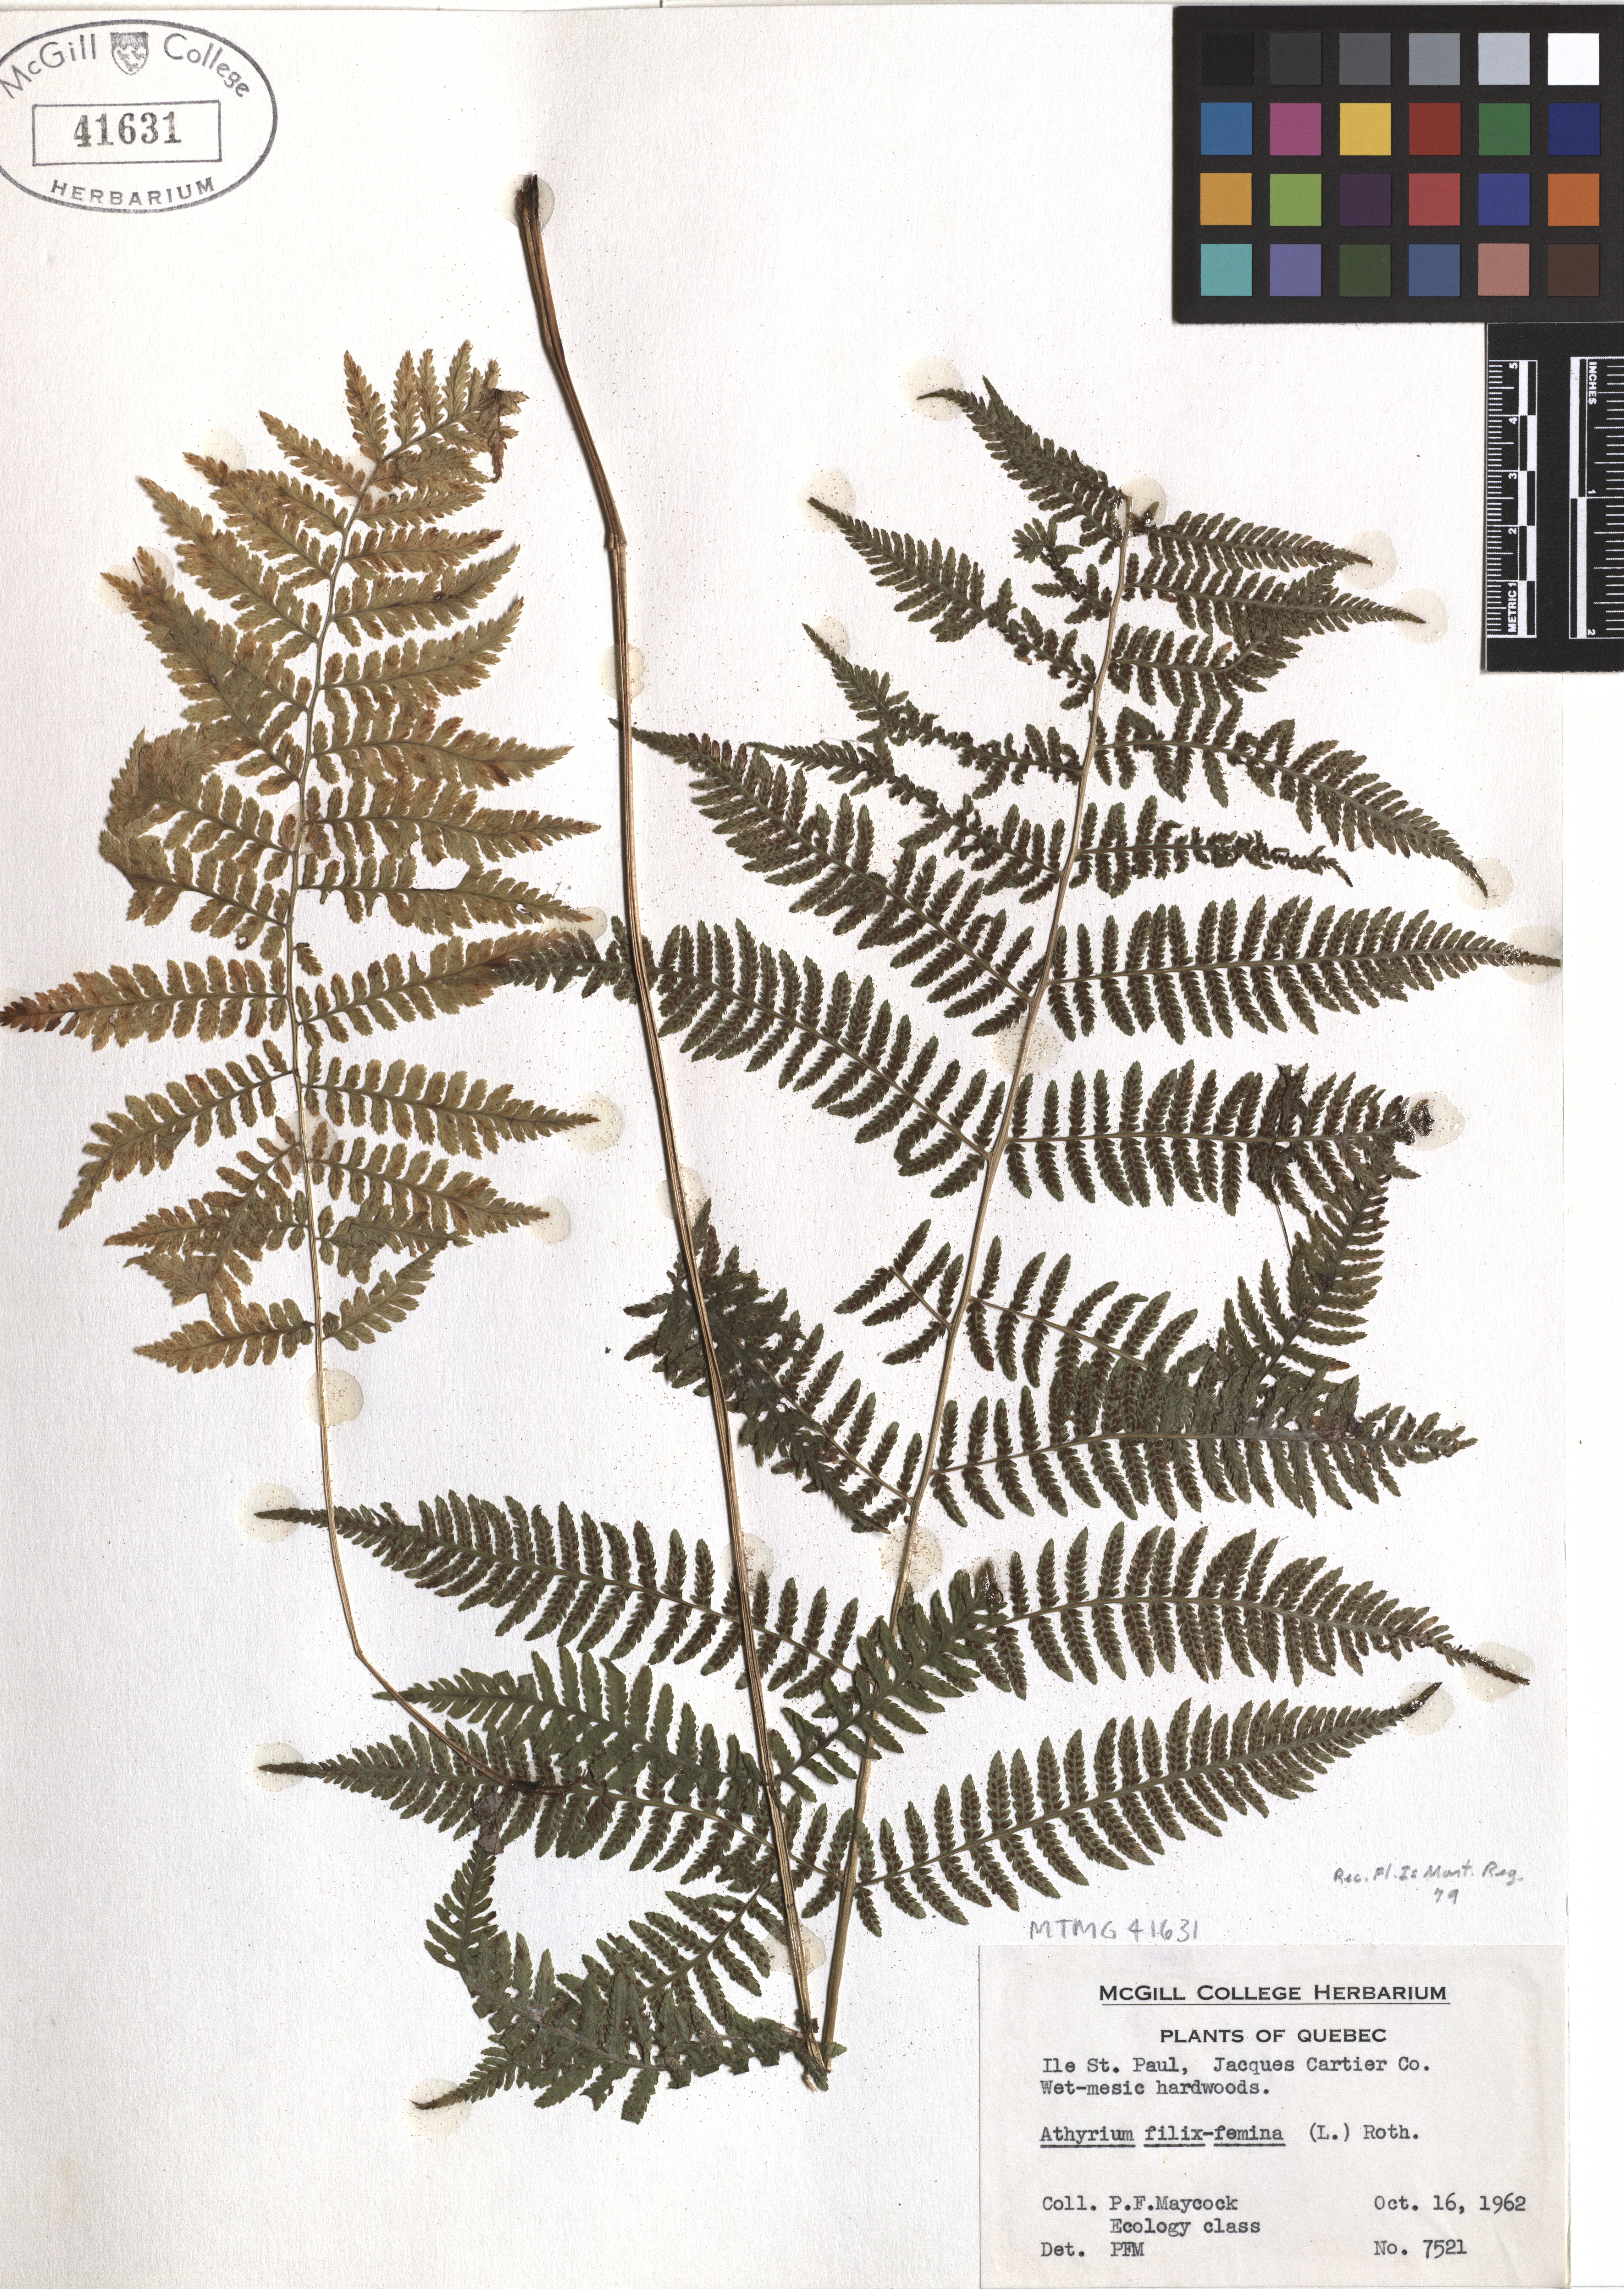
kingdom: Plantae
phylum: Tracheophyta
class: Polypodiopsida
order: Polypodiales
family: Athyriaceae
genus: Athyrium
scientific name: Athyrium filix-femina
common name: Lady fern
